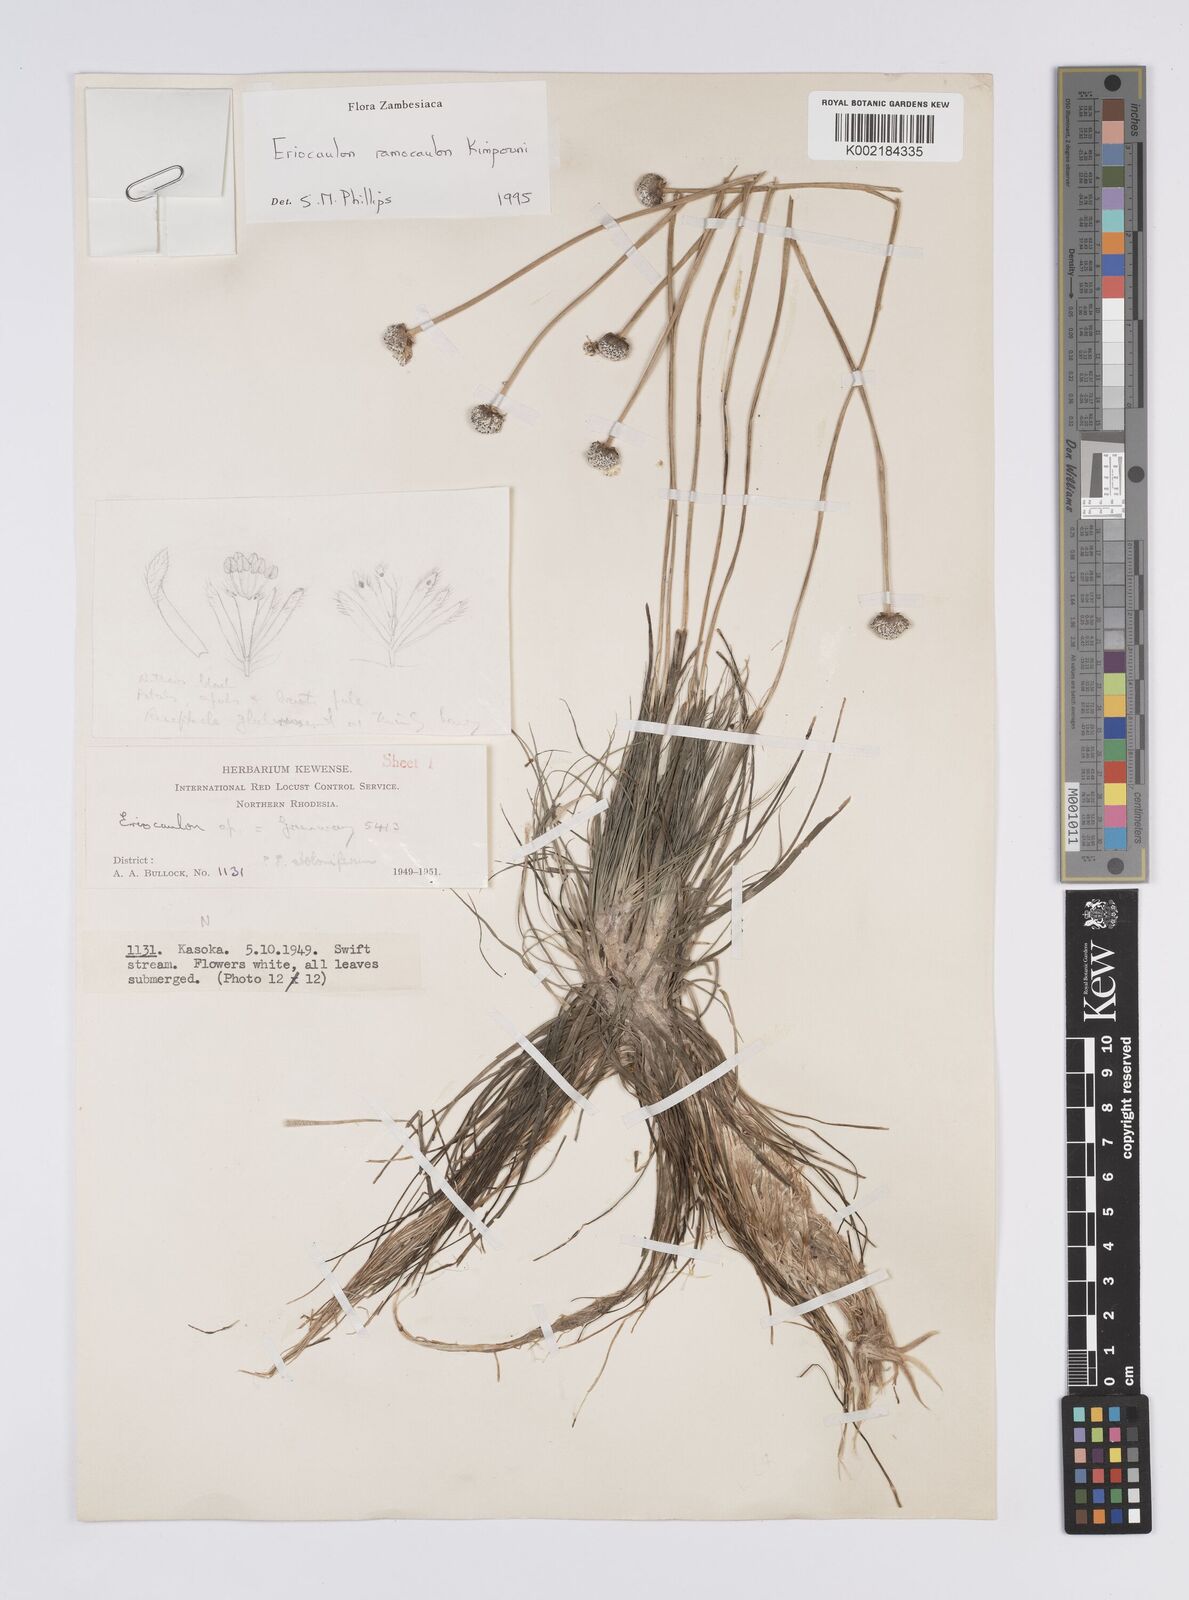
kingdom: Plantae
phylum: Tracheophyta
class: Liliopsida
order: Poales
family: Eriocaulaceae
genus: Eriocaulon
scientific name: Eriocaulon ramocaulon
